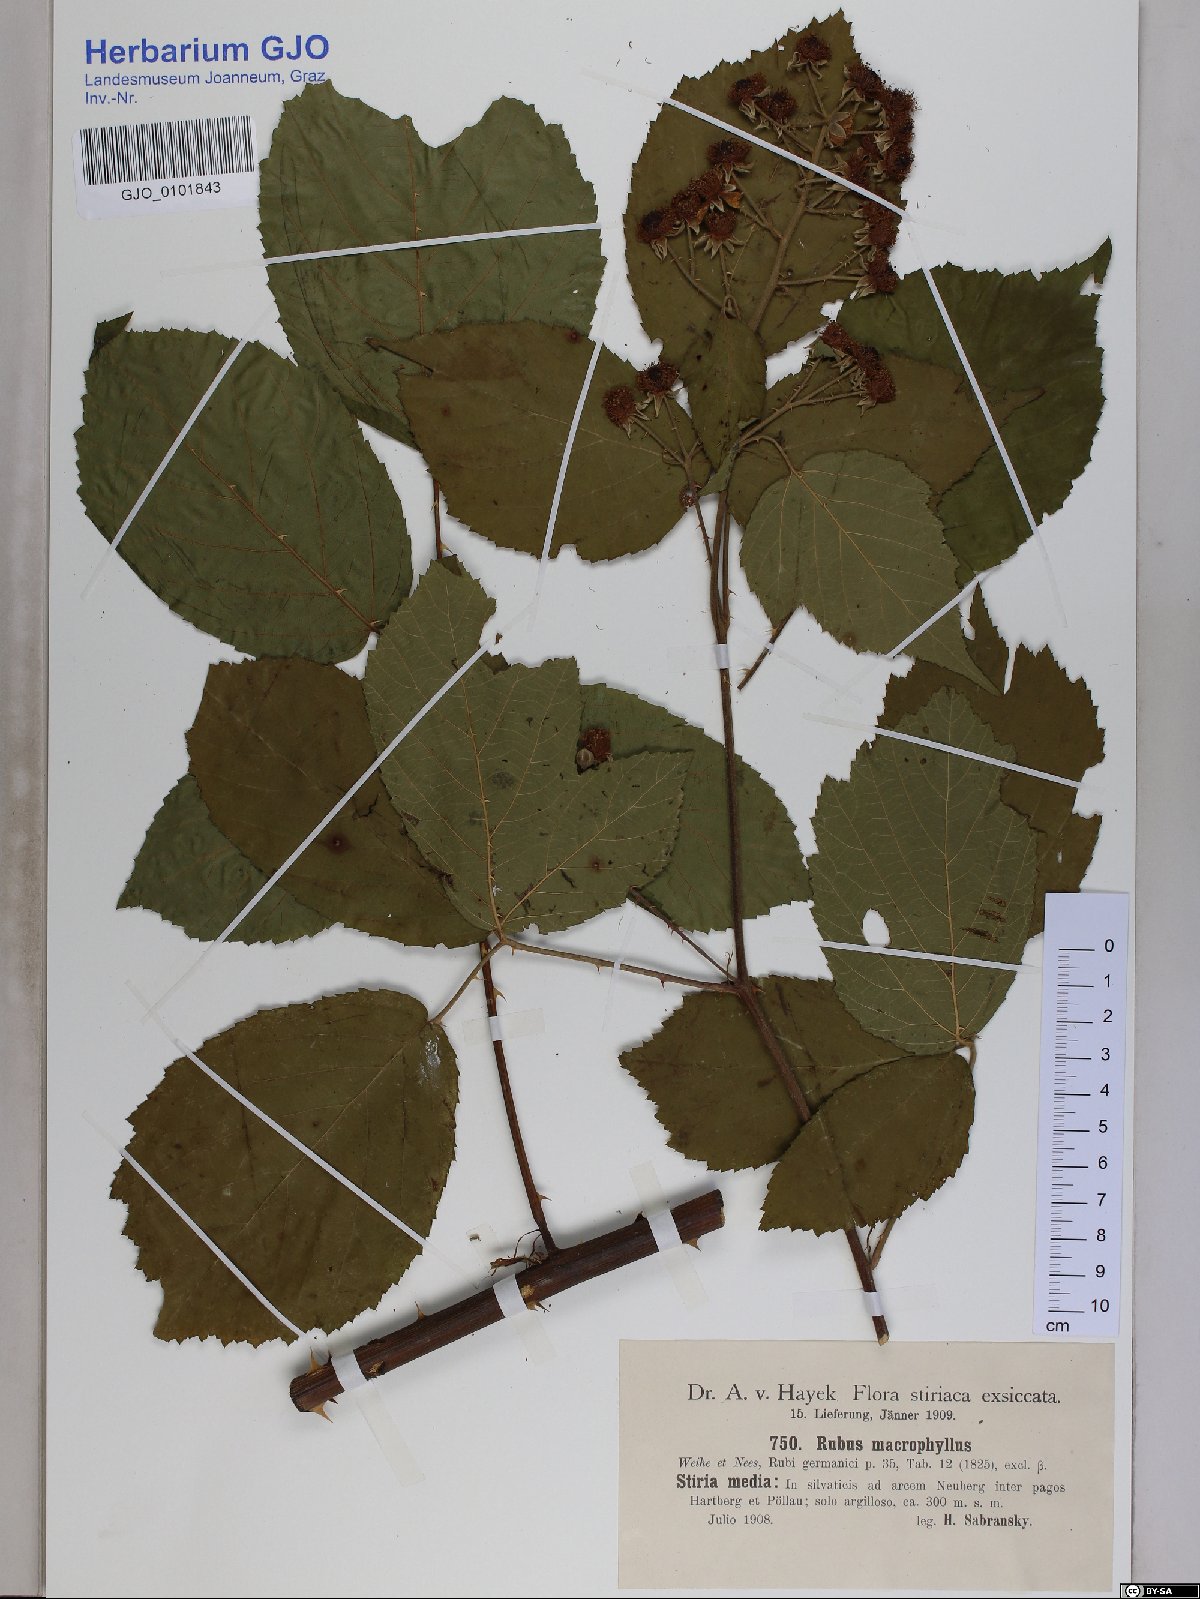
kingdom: Plantae
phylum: Tracheophyta
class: Magnoliopsida
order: Rosales
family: Rosaceae
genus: Rubus
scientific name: Rubus macrophyllus
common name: Largeleaf blackberry
